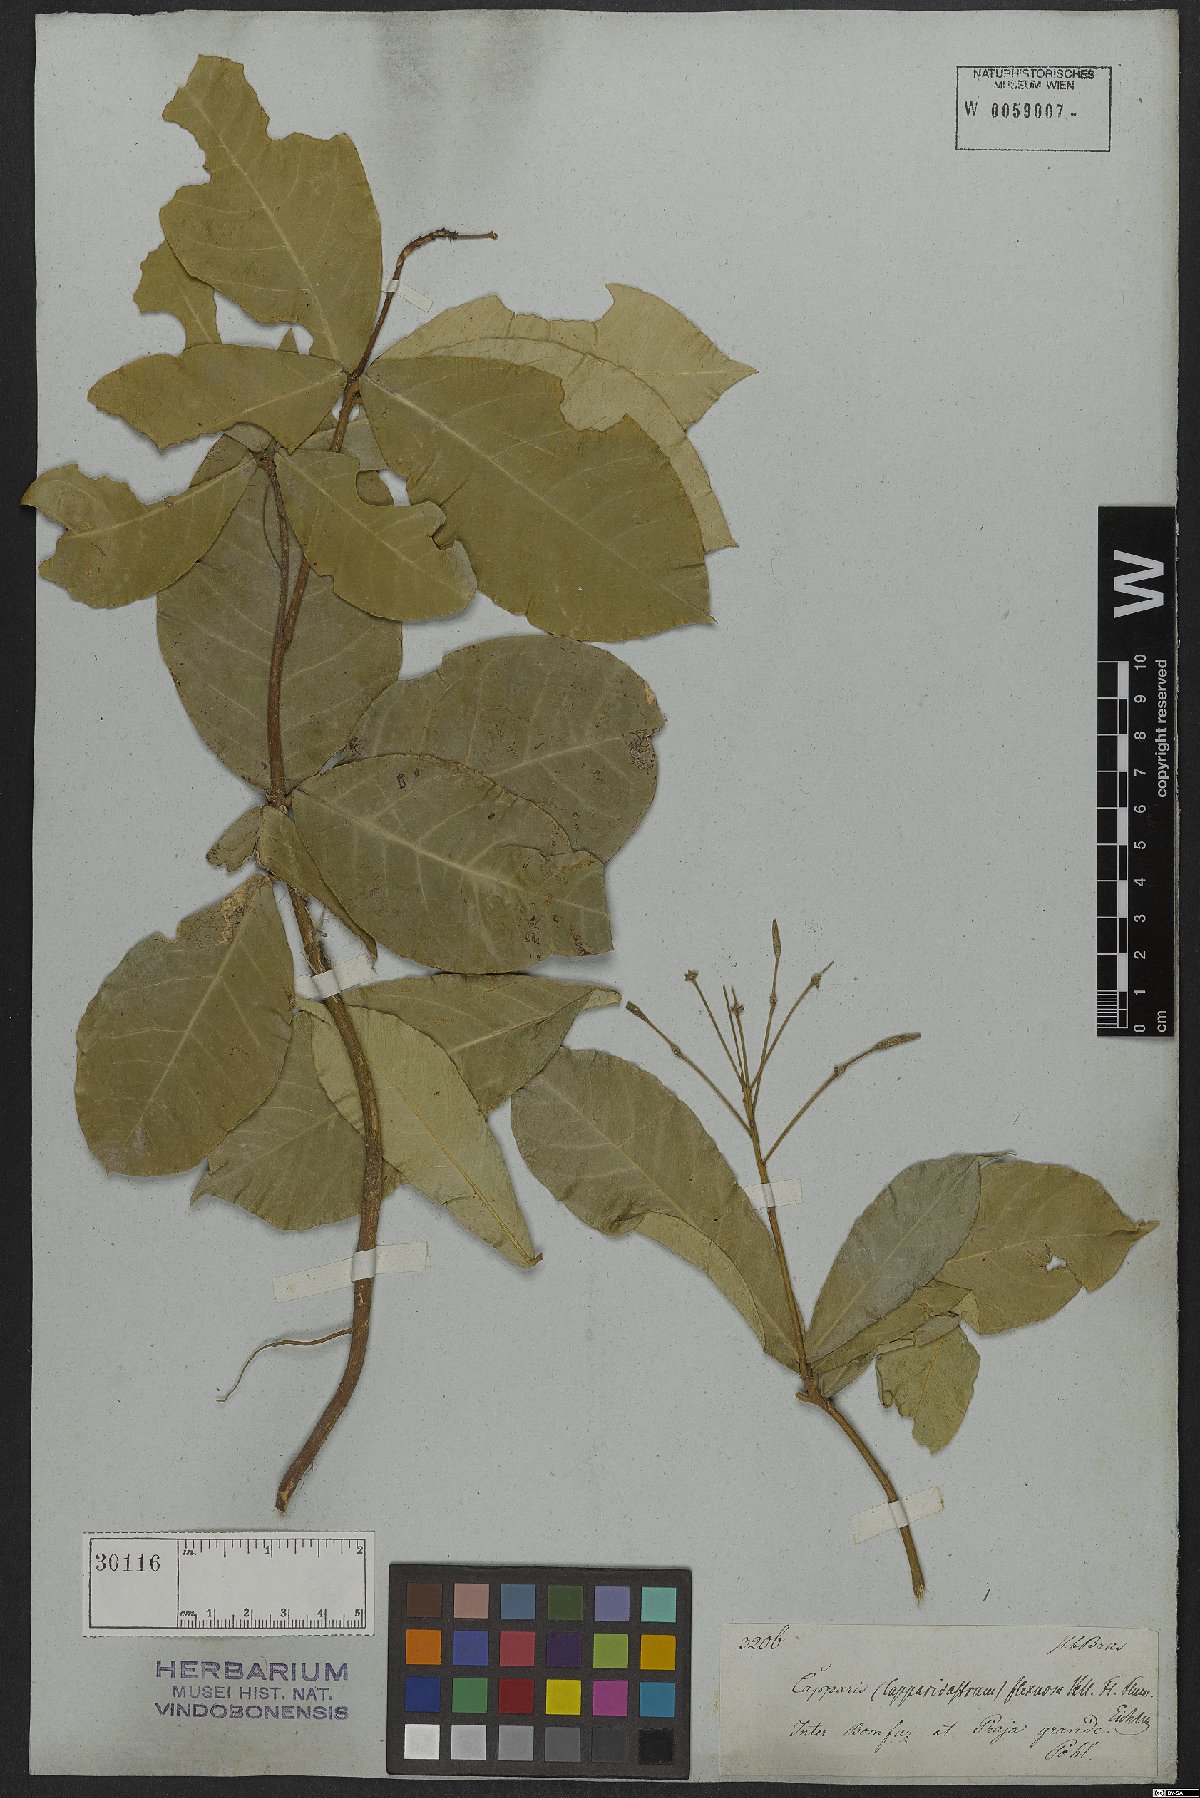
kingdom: Plantae
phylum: Tracheophyta
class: Magnoliopsida
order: Brassicales
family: Capparaceae
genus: Cynophalla
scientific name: Cynophalla flexuosa
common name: Capertree
